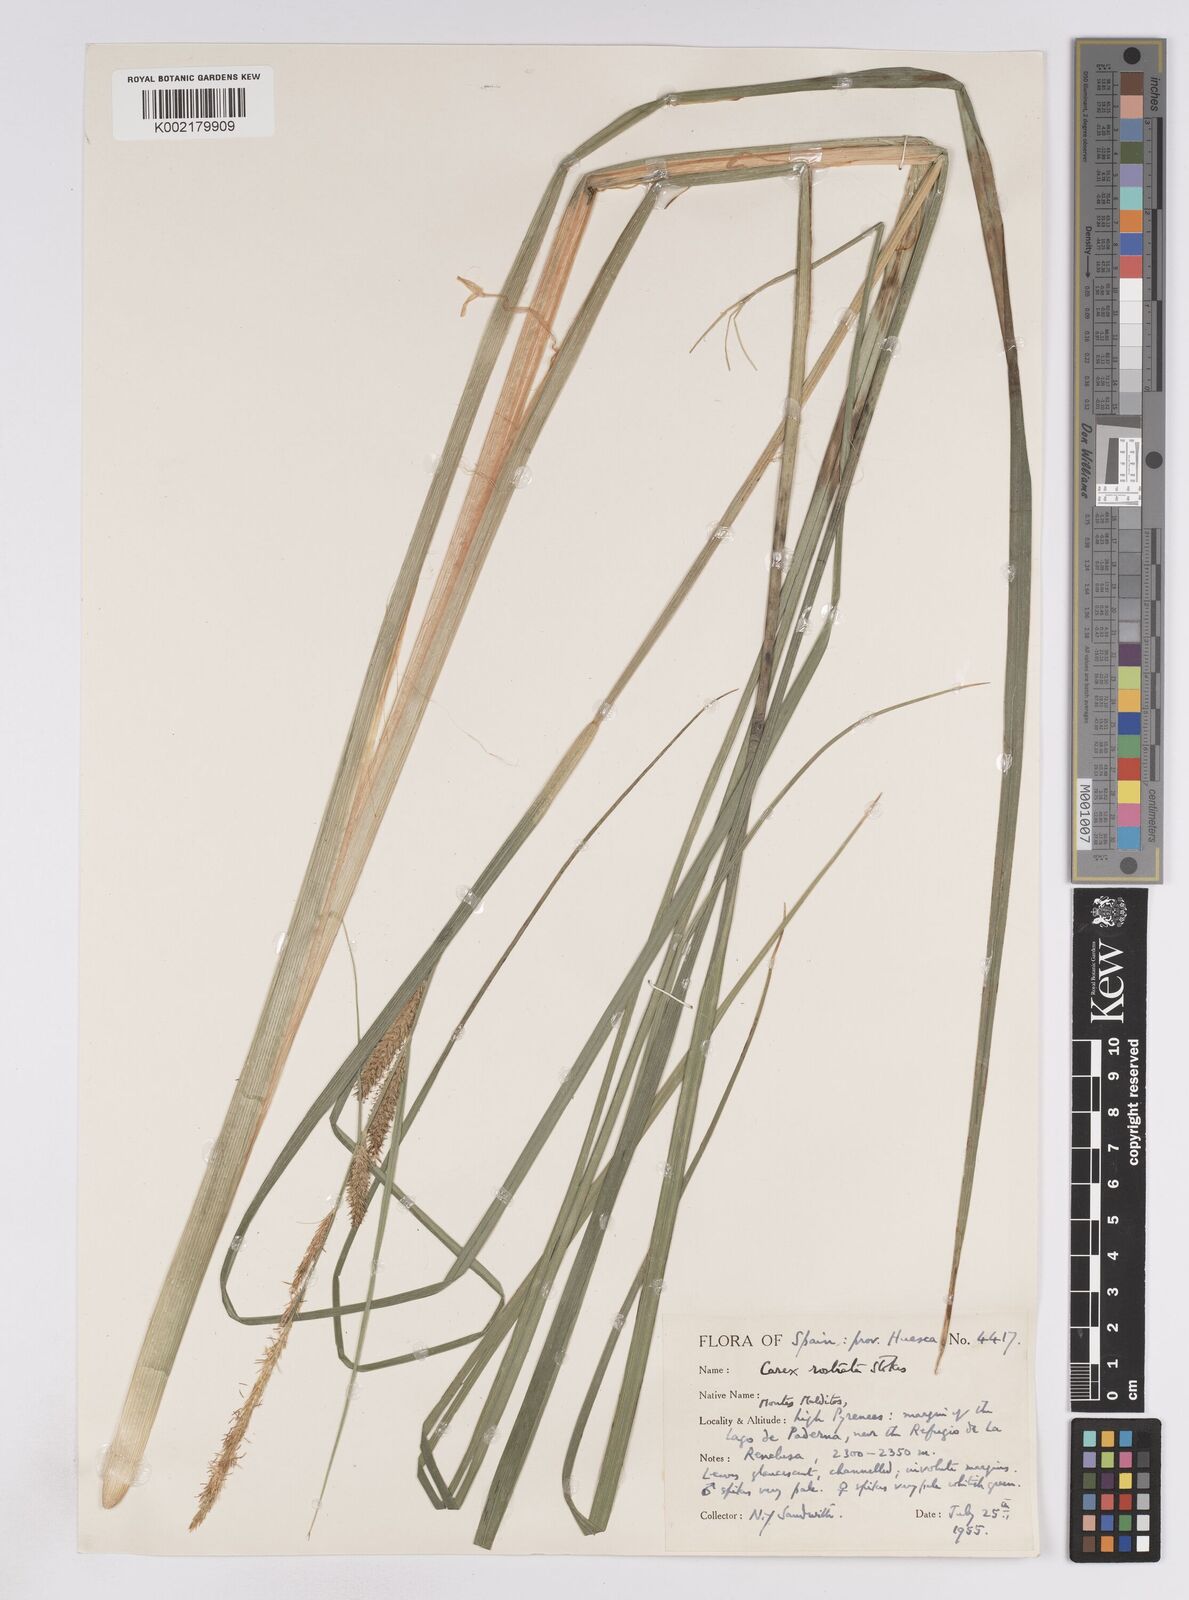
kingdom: Plantae
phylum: Tracheophyta
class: Liliopsida
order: Poales
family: Cyperaceae
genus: Carex
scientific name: Carex rostrata
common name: Bottle sedge
